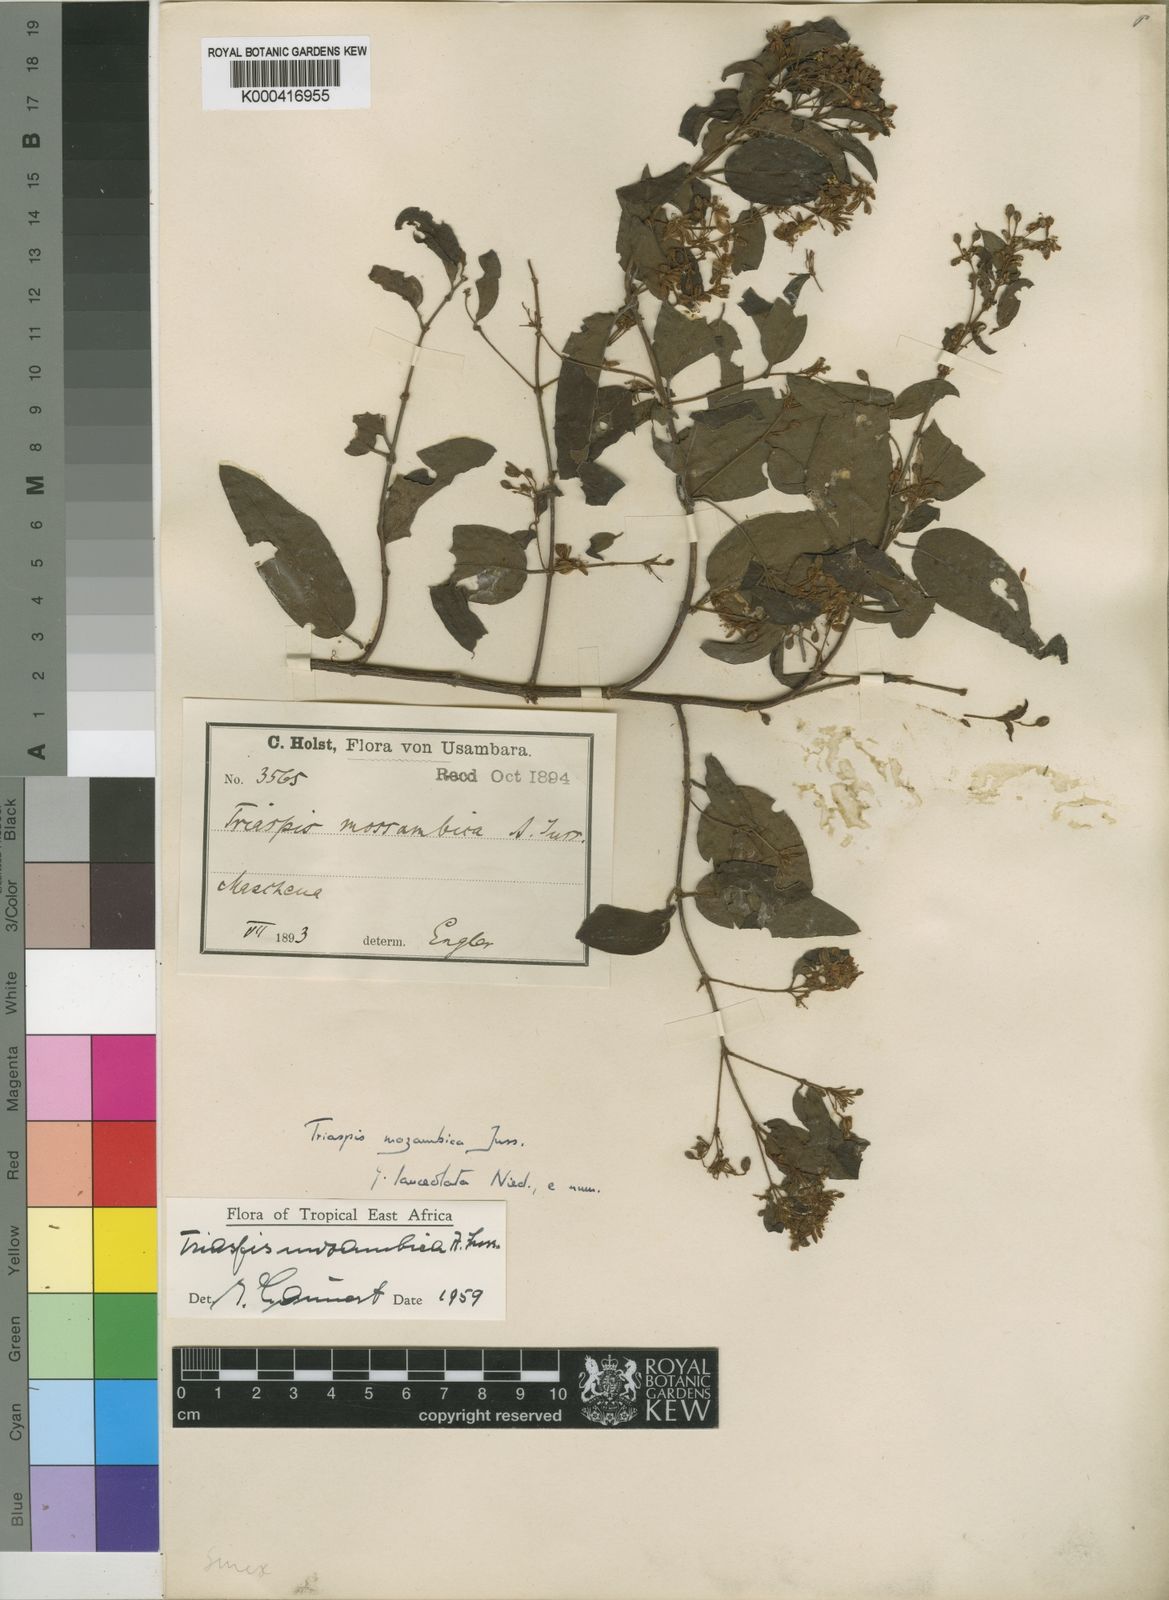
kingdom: Plantae
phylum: Tracheophyta
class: Magnoliopsida
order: Malpighiales
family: Malpighiaceae
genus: Triaspis
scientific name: Triaspis mozambica
